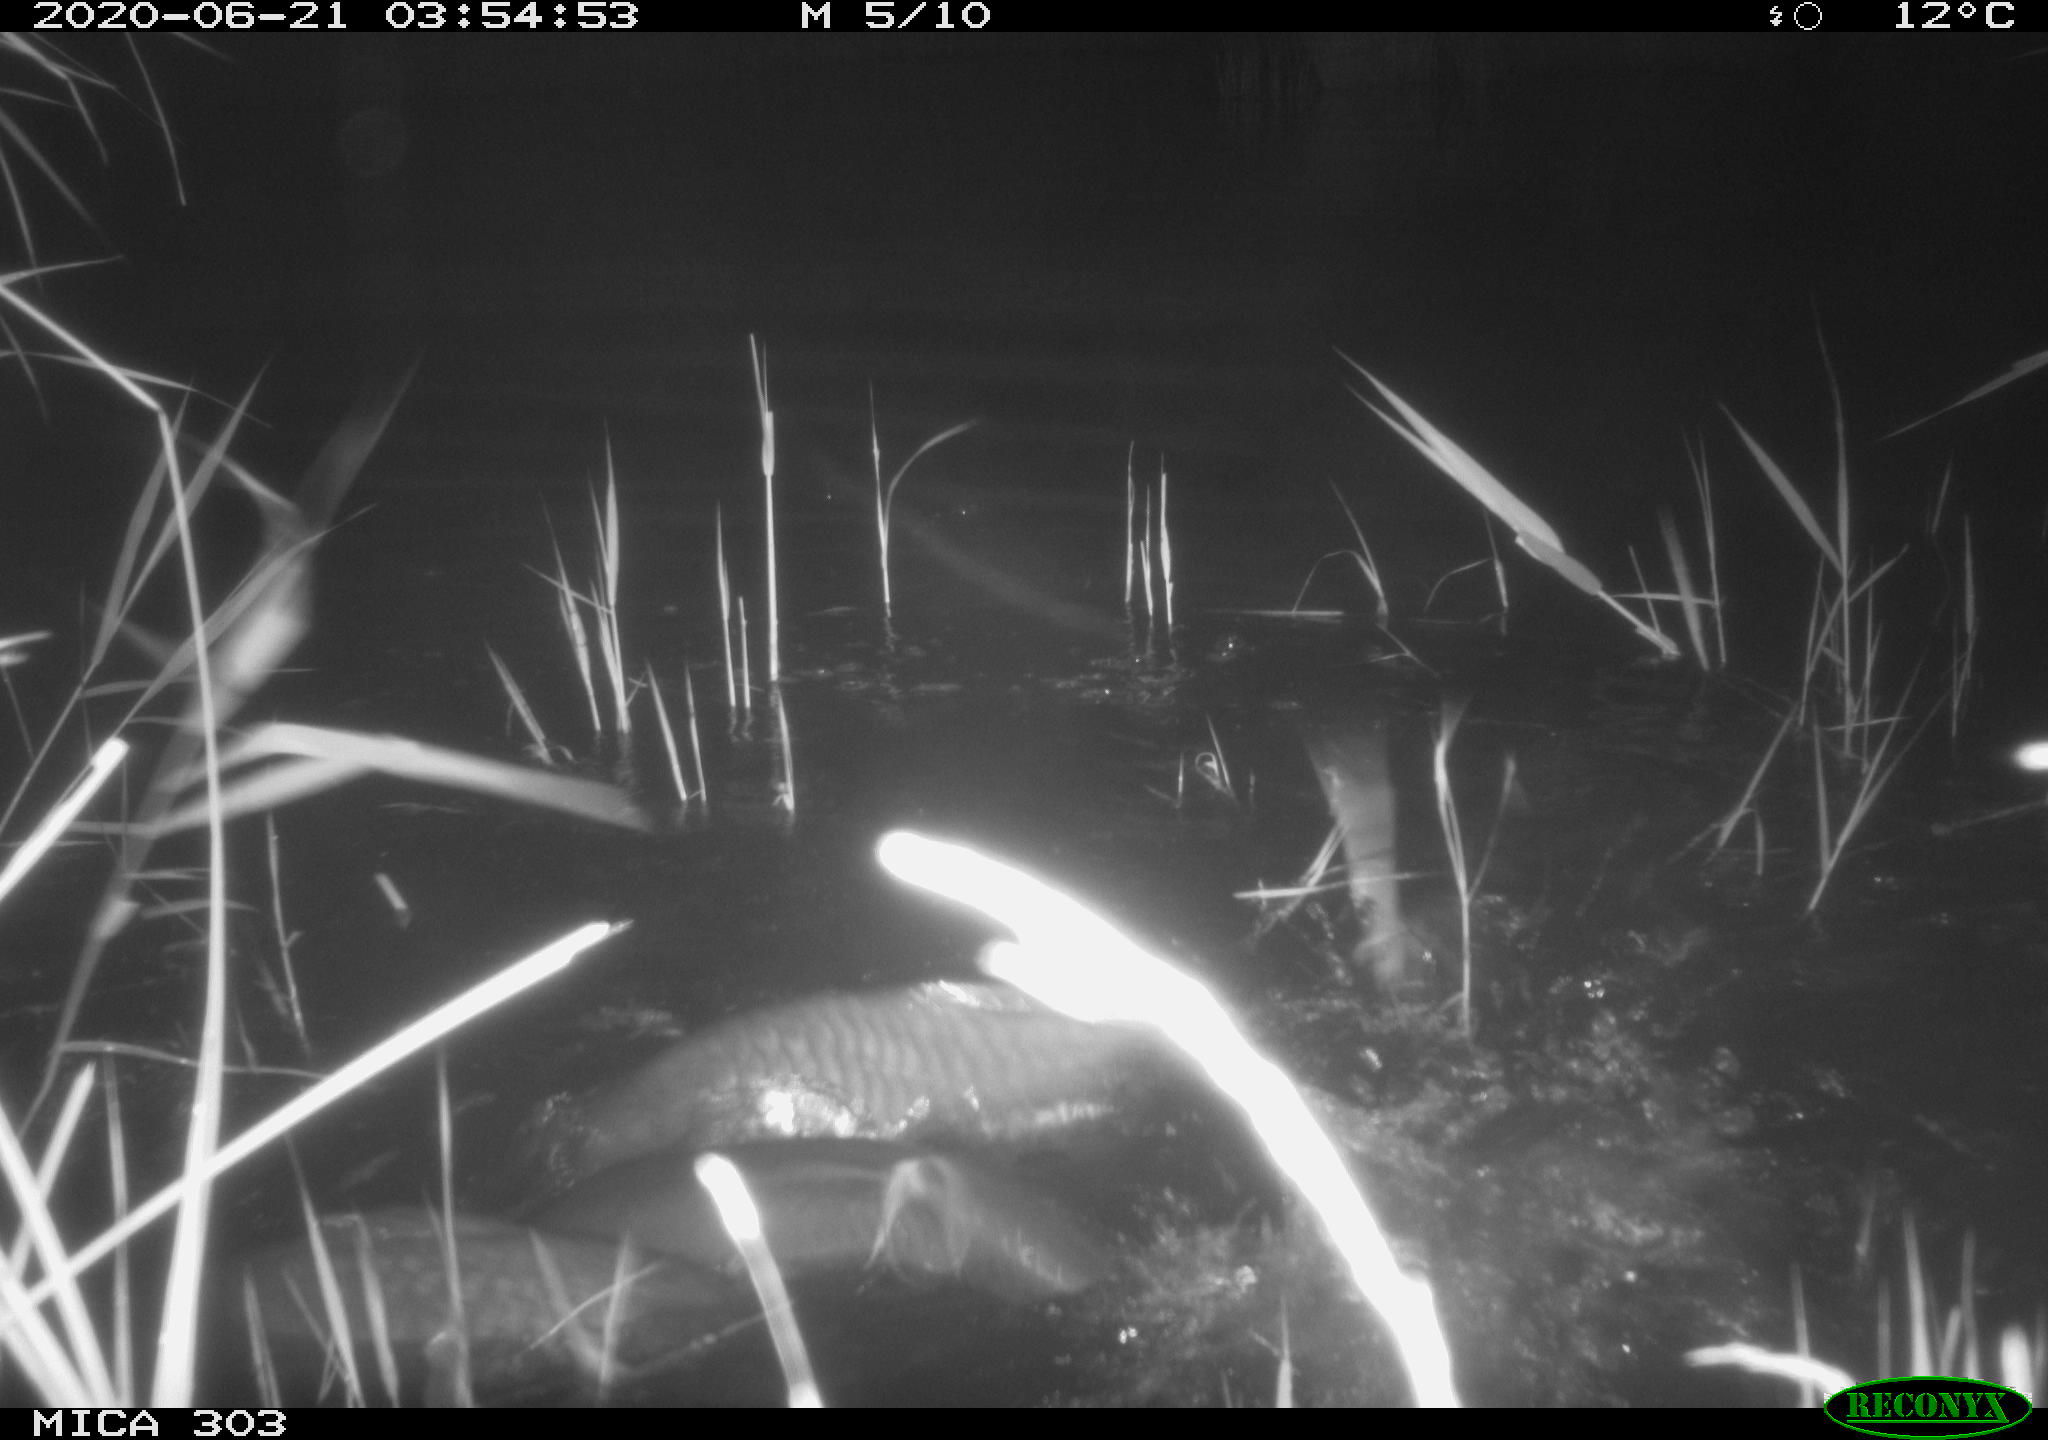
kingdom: Animalia
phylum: Chordata
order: Cypriniformes
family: Cyprinidae
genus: Cyprinus
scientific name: Cyprinus carpio
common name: Common carp
